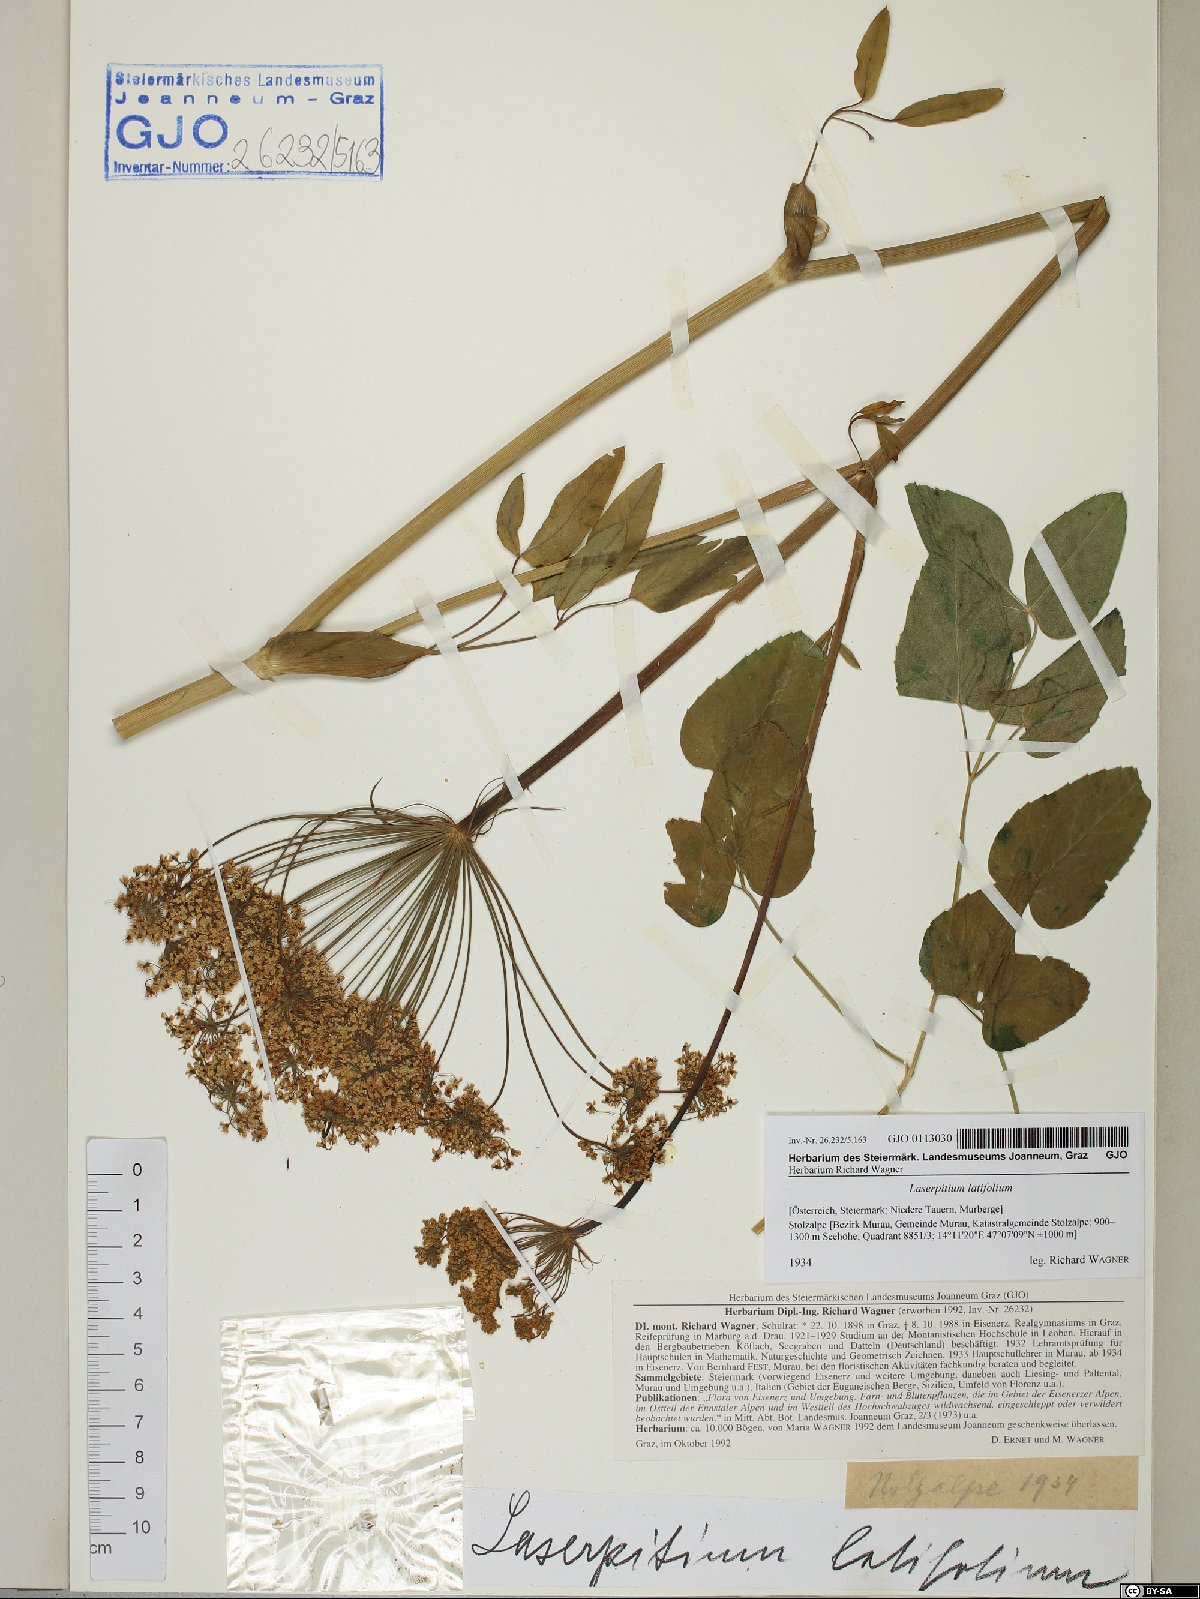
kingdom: Plantae
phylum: Tracheophyta
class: Magnoliopsida
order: Apiales
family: Apiaceae
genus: Laserpitium
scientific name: Laserpitium latifolium
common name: Broadleaf sermountain
